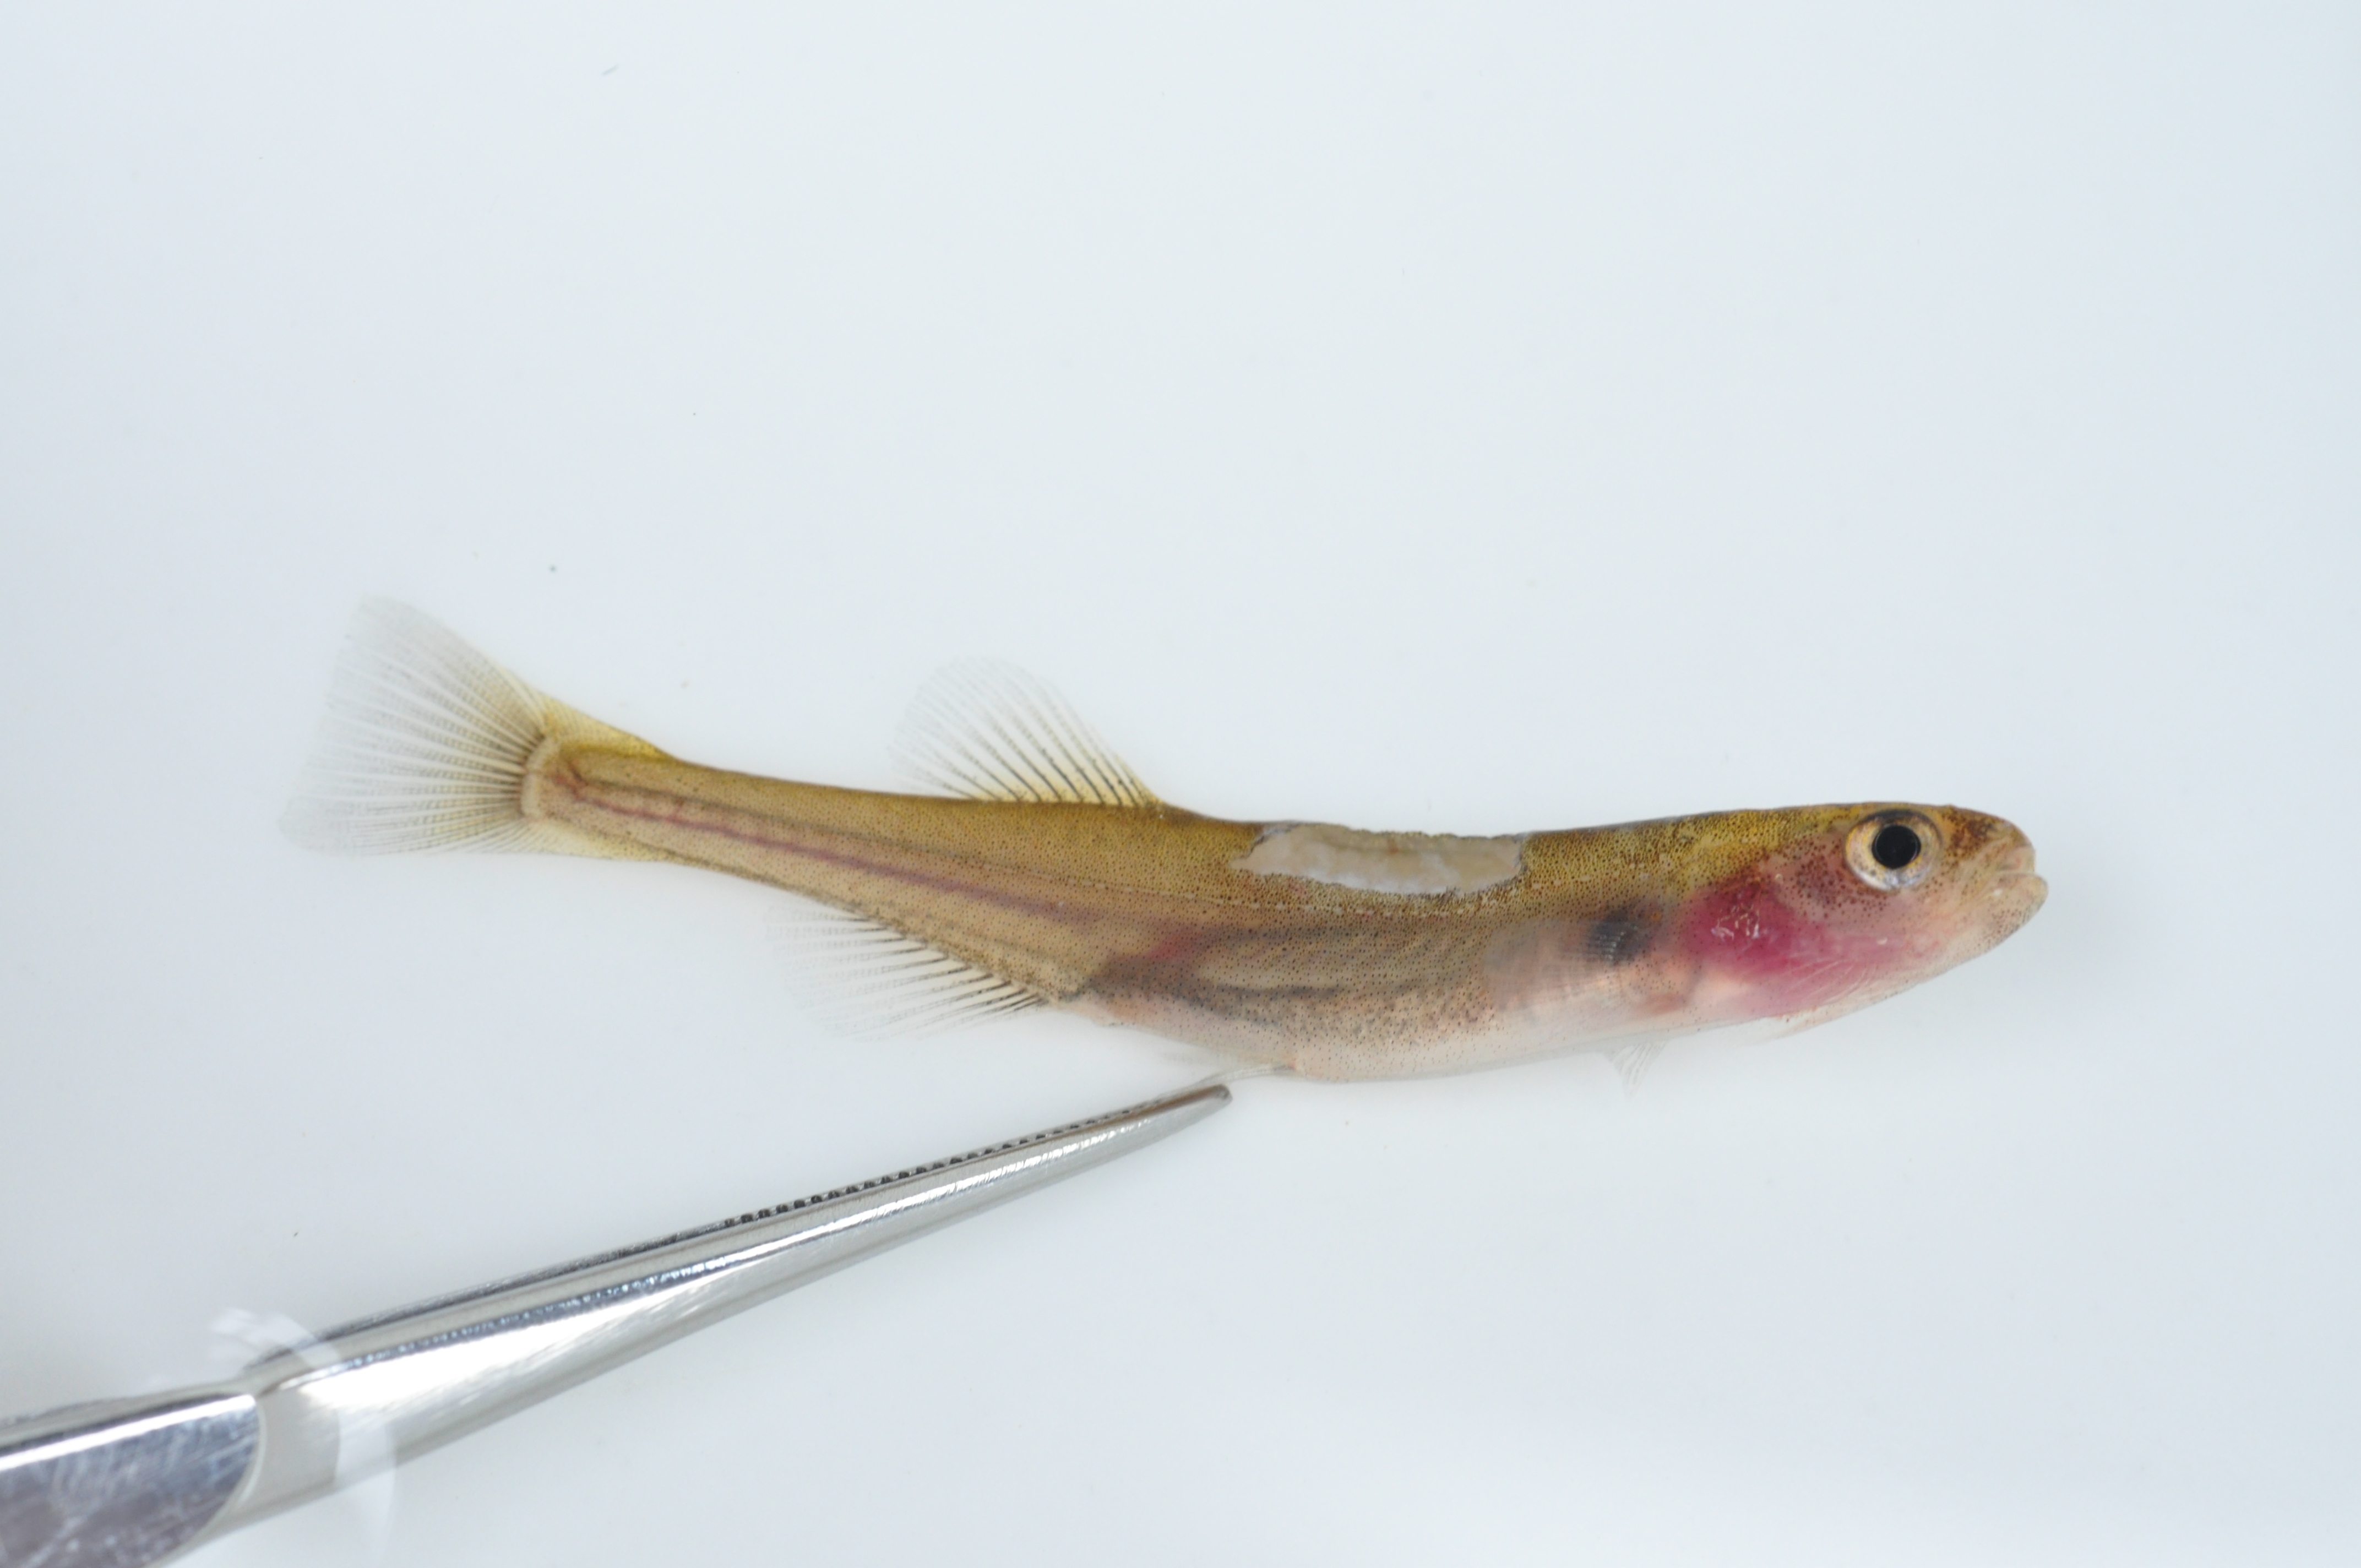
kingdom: Animalia
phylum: Chordata
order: Osmeriformes
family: Galaxiidae
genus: Galaxias
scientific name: Galaxias zebratus
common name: Cape galaxias
